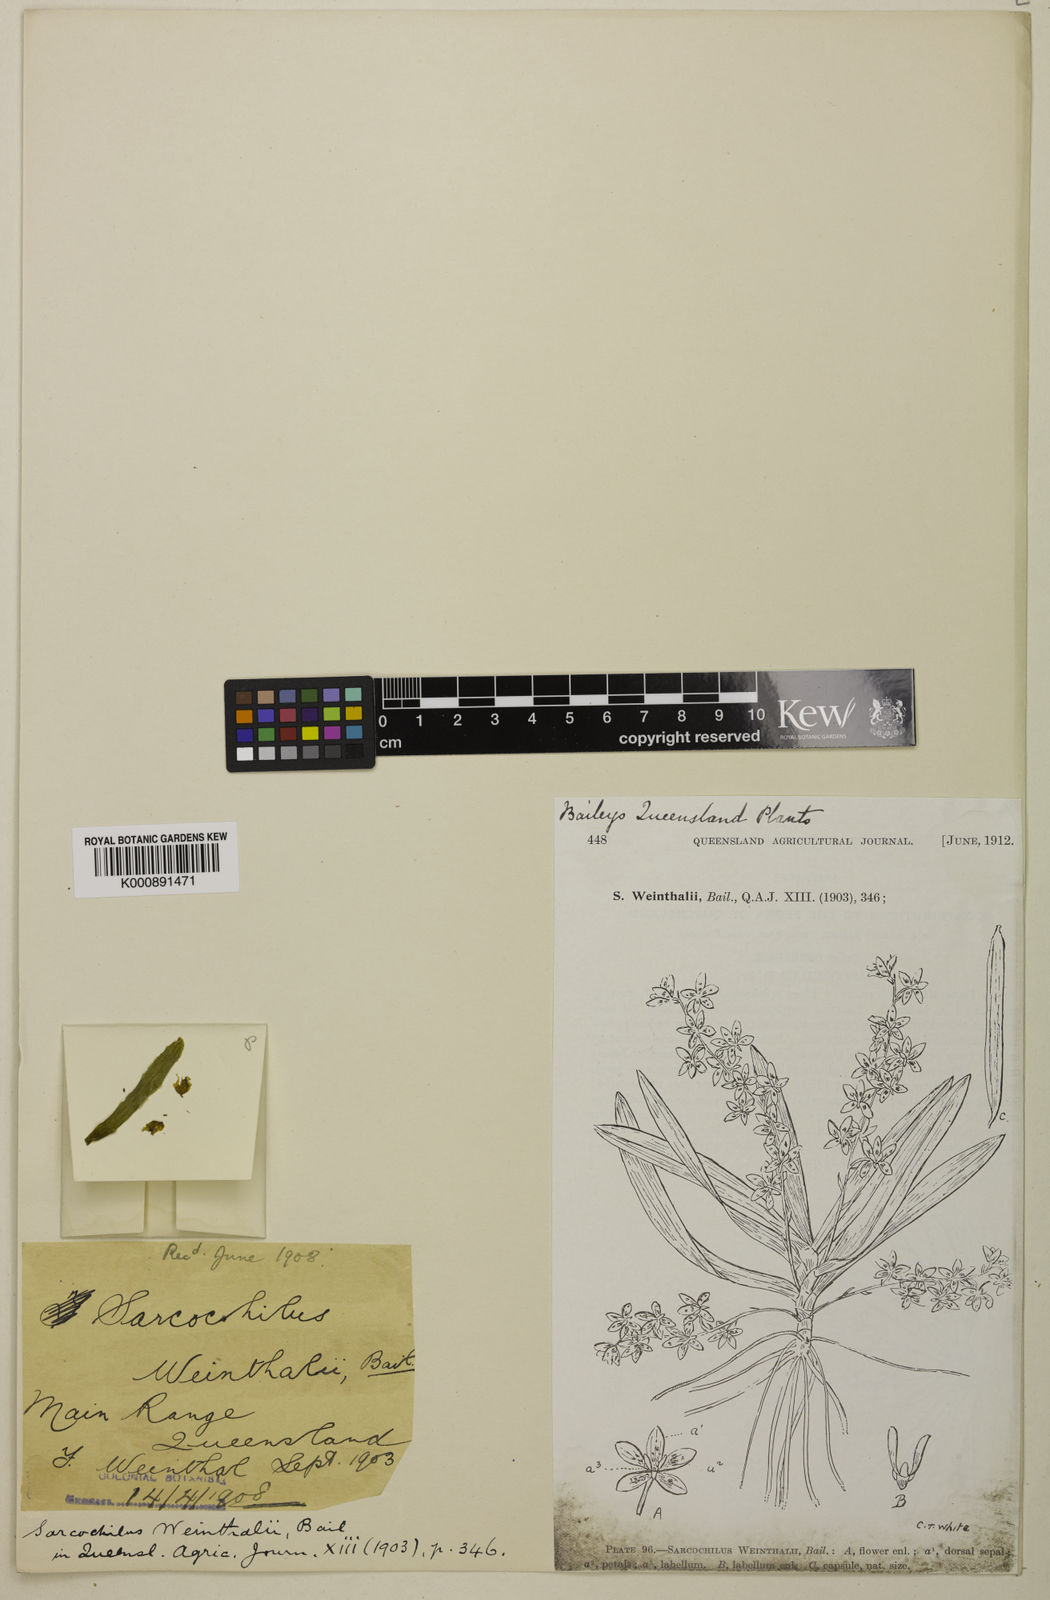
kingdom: Plantae
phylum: Tracheophyta
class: Liliopsida
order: Asparagales
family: Orchidaceae
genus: Sarcochilus
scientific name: Sarcochilus weinthalii
